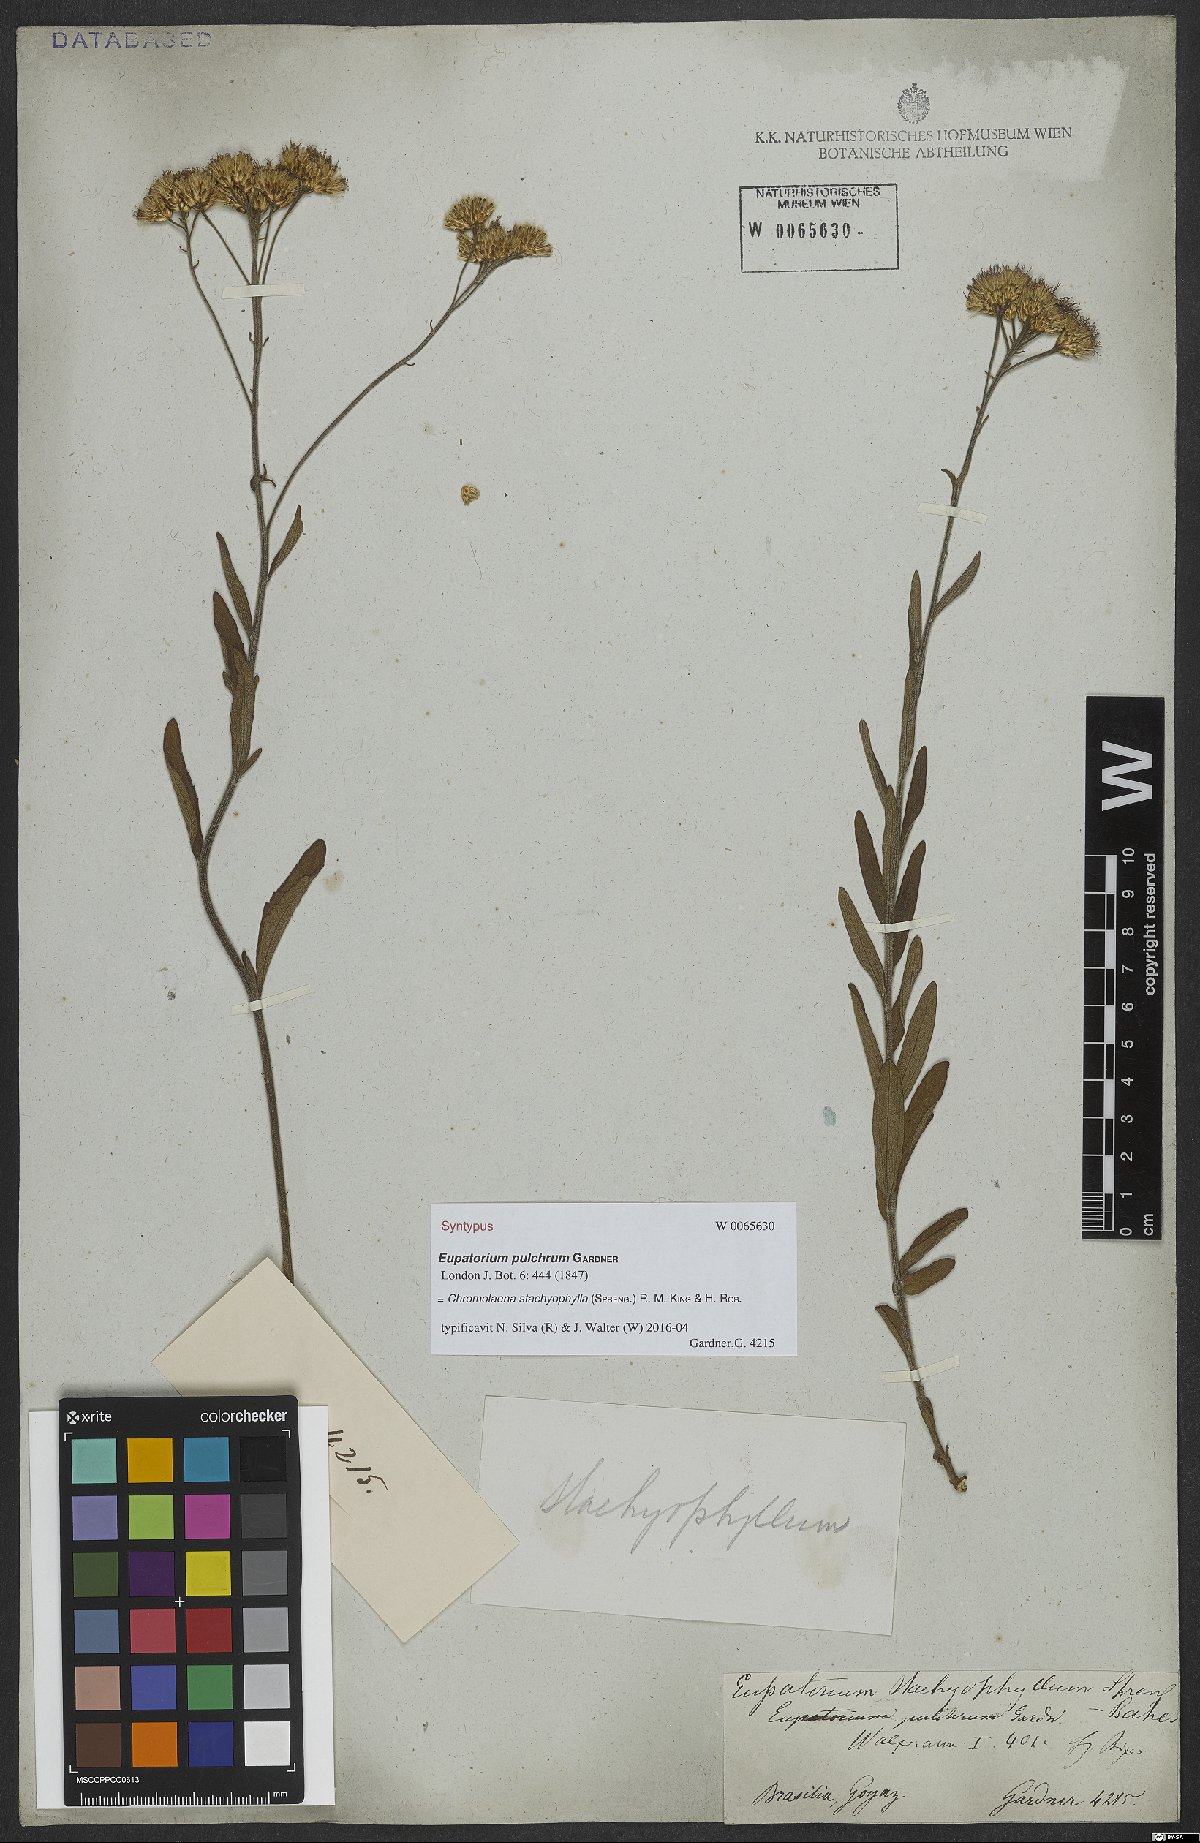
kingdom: Plantae
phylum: Tracheophyta
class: Magnoliopsida
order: Asterales
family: Asteraceae
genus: Chromolaena
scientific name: Chromolaena stachyophylla
